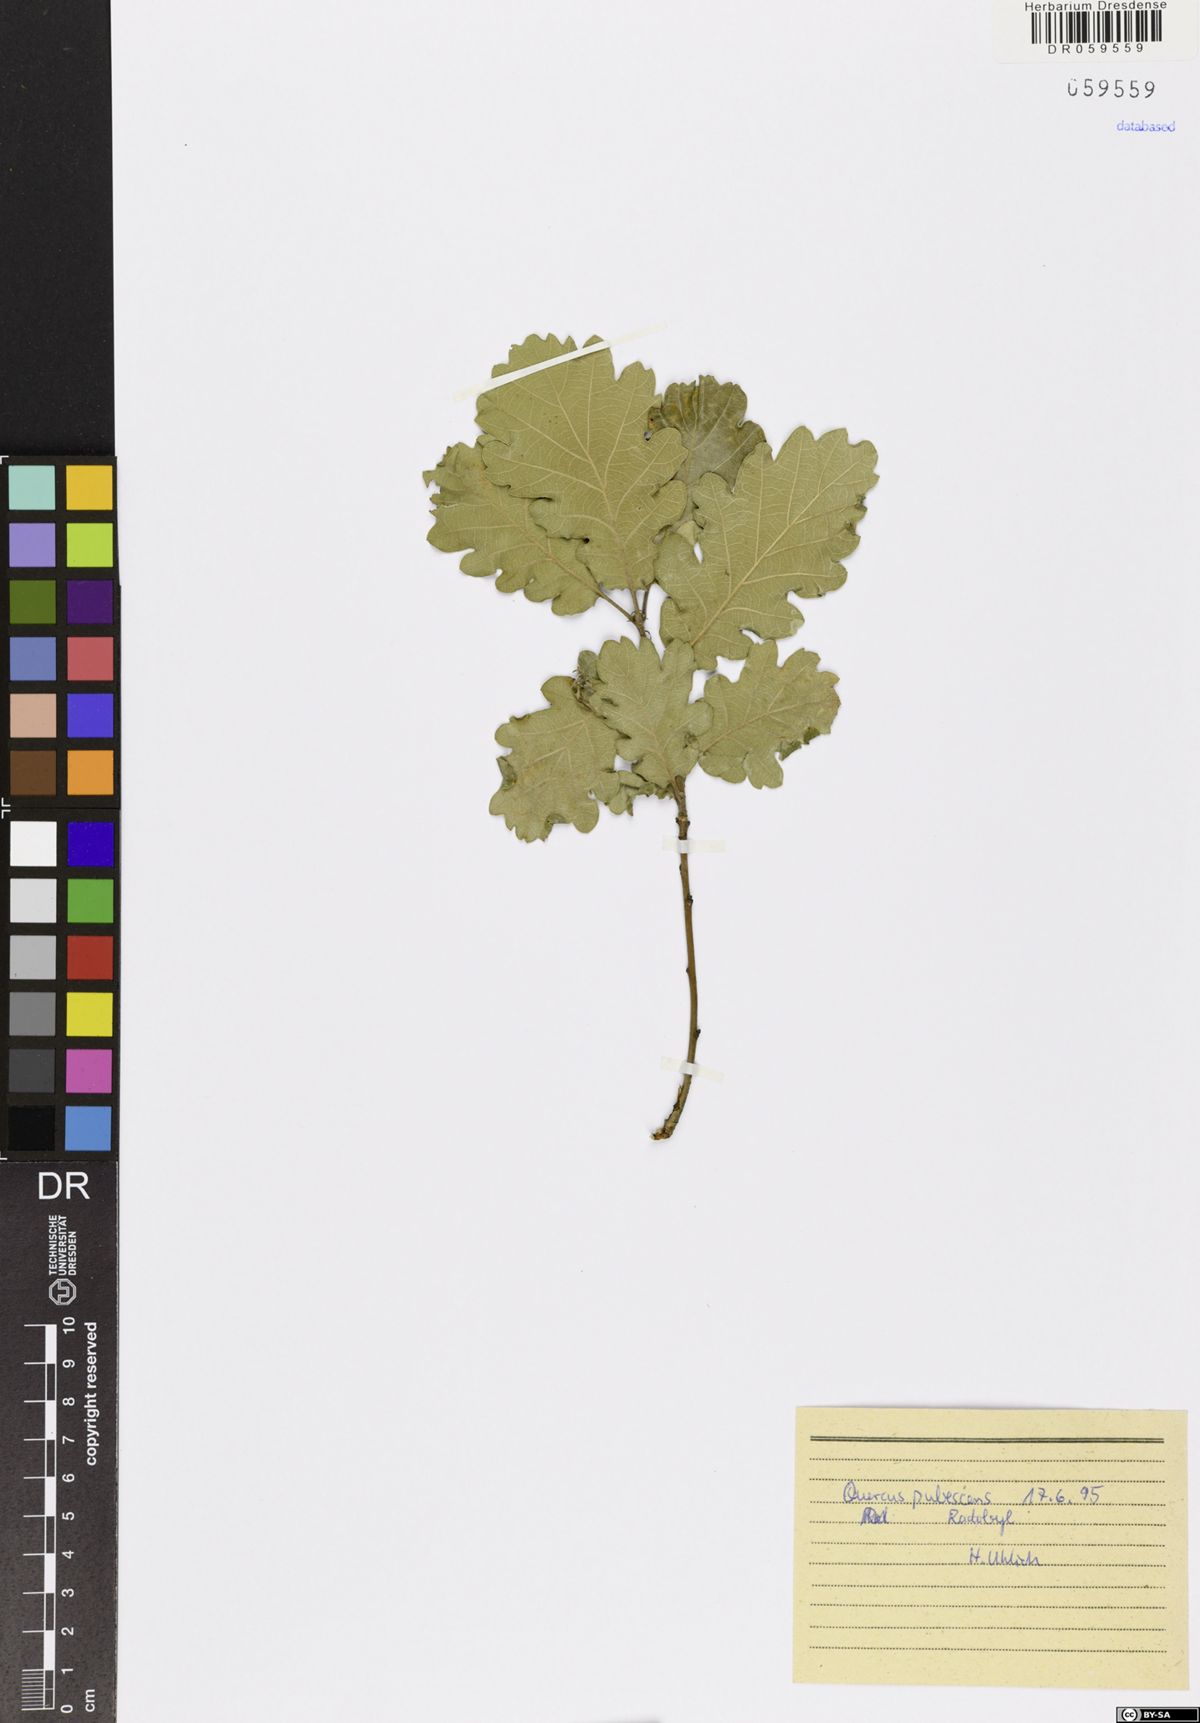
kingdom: Plantae
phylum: Tracheophyta
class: Magnoliopsida
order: Fagales
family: Fagaceae
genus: Quercus
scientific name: Quercus pubescens
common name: Downy oak
